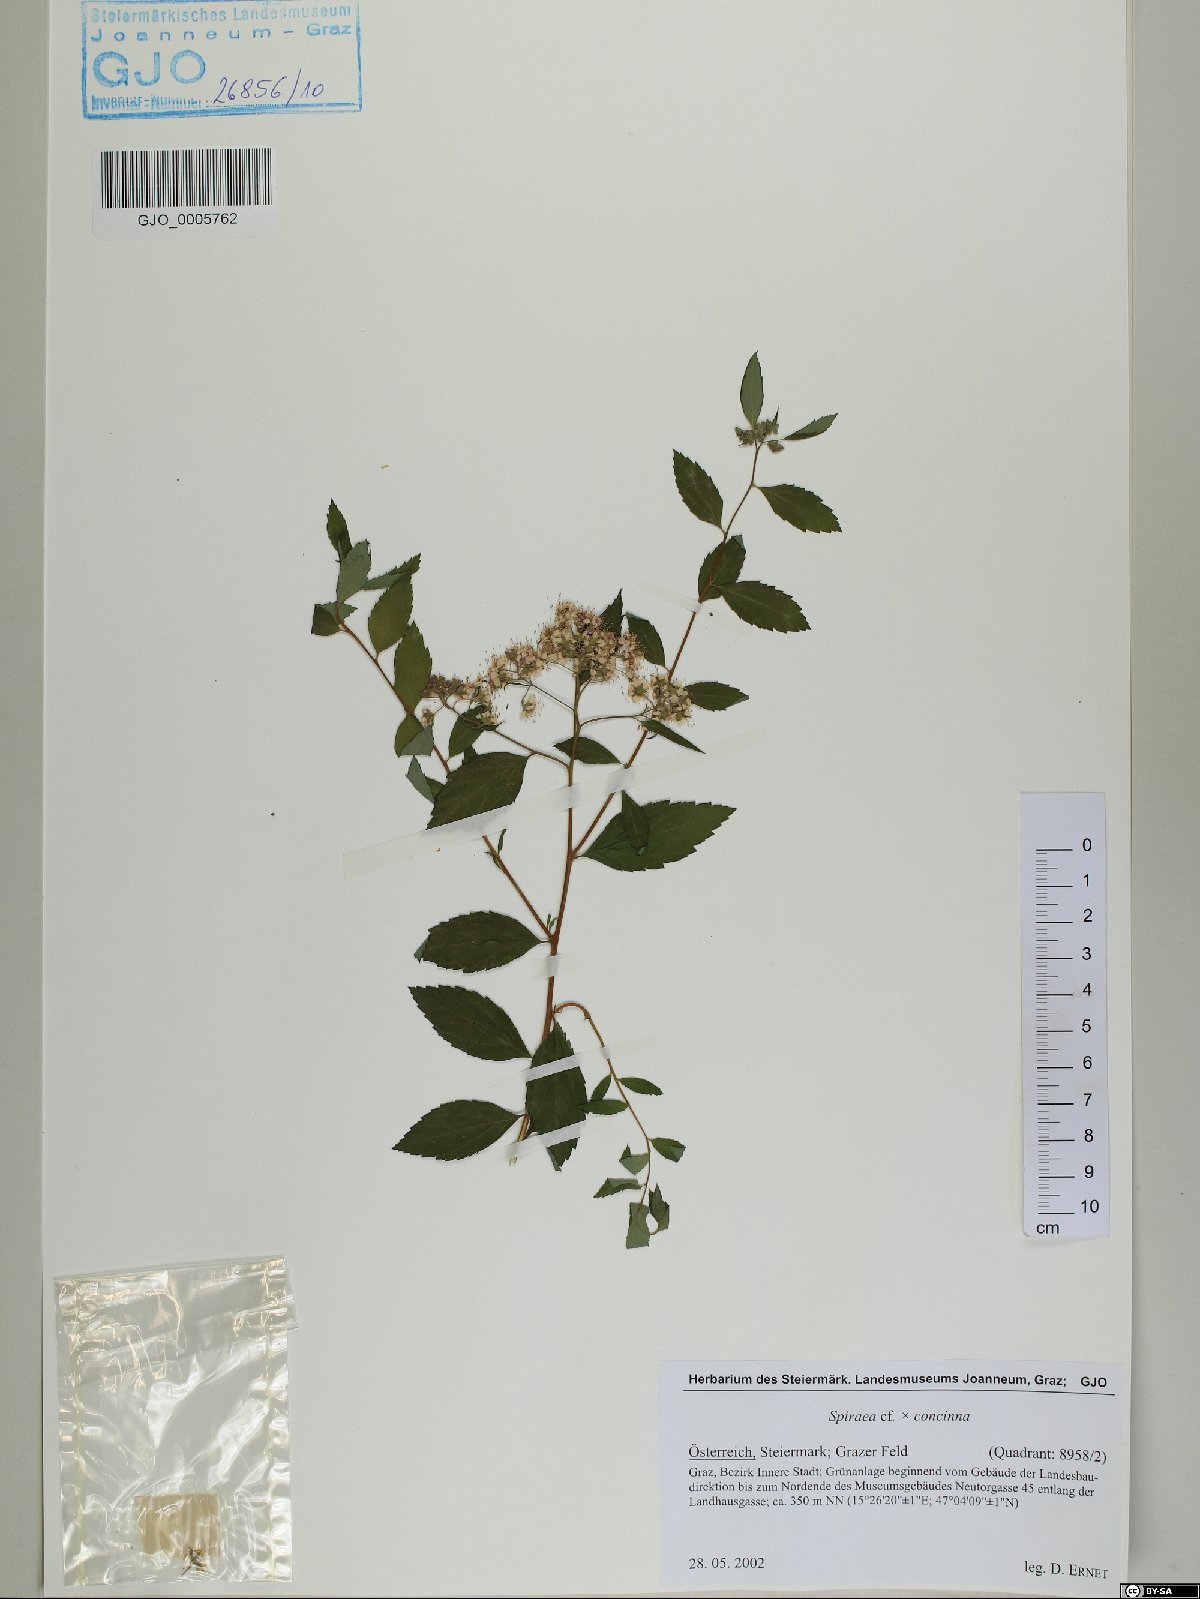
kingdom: Plantae
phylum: Tracheophyta
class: Magnoliopsida
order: Rosales
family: Rosaceae
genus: Spiraea
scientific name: Spiraea concinna
